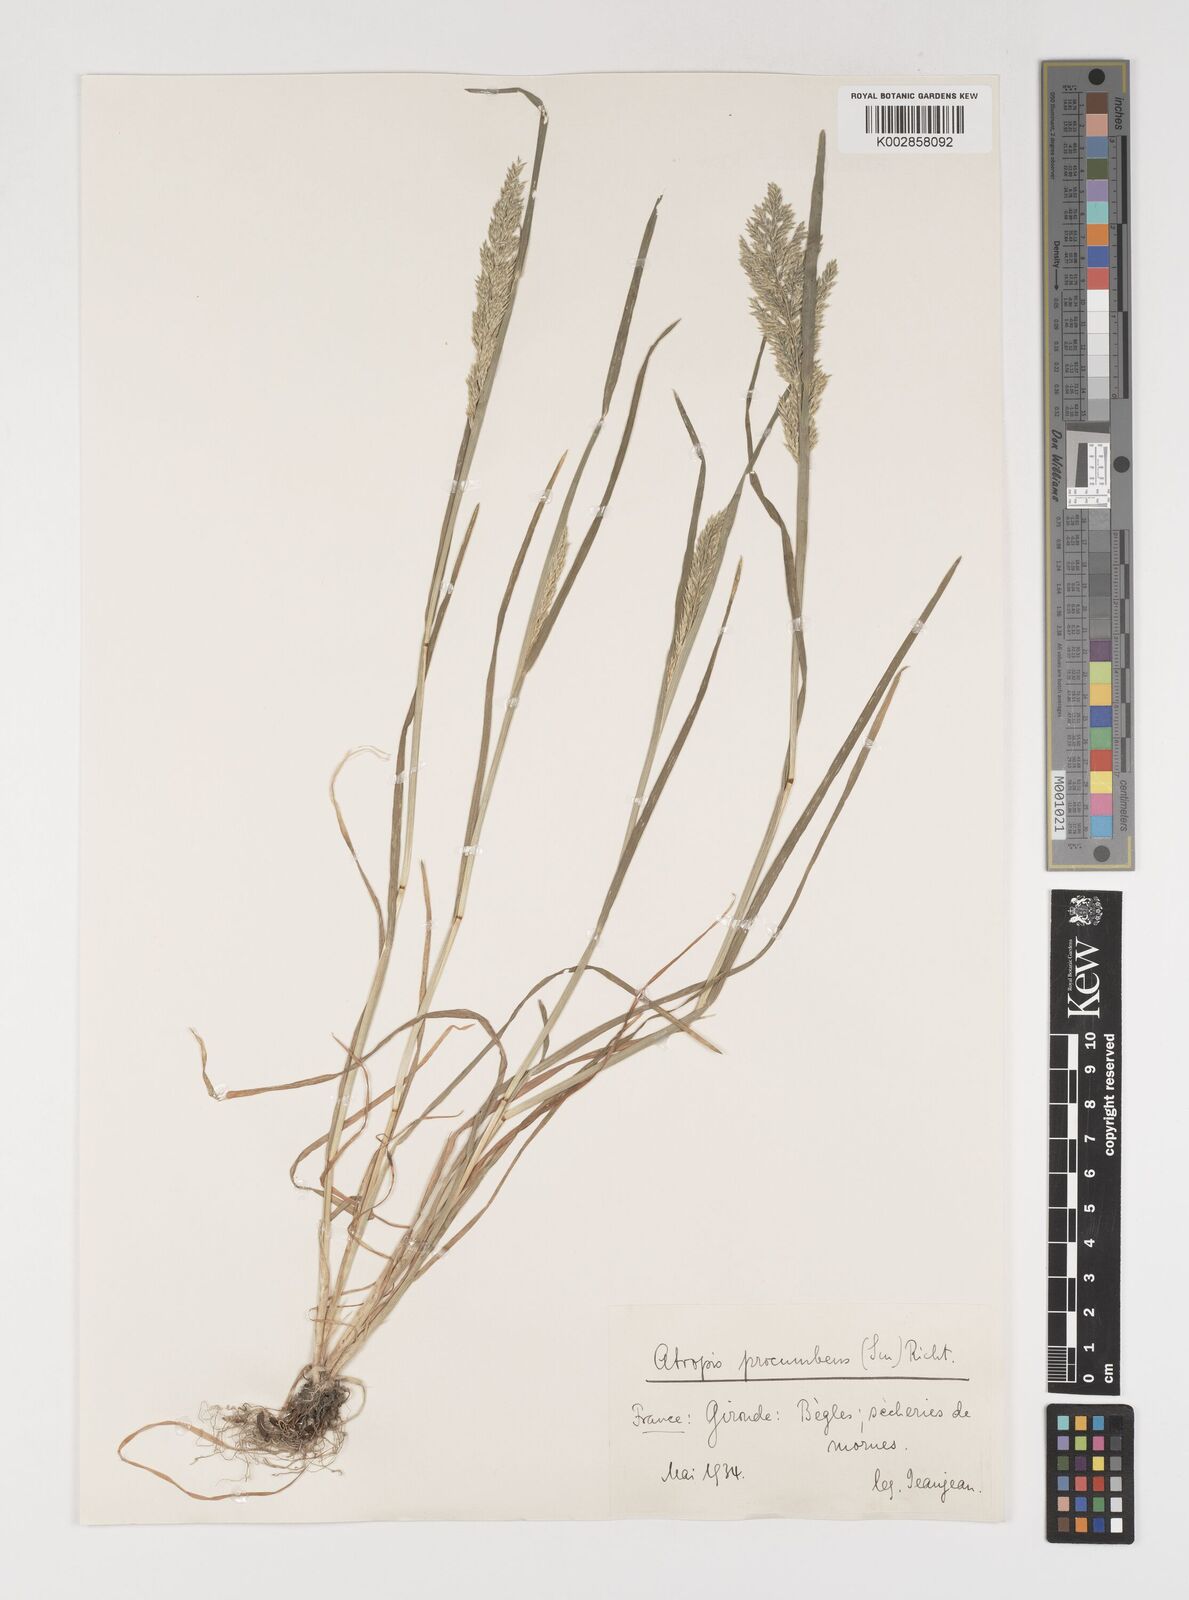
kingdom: Plantae
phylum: Tracheophyta
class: Liliopsida
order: Poales
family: Poaceae
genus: Puccinellia
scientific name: Puccinellia rupestris
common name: Stiff saltmarsh-grass
